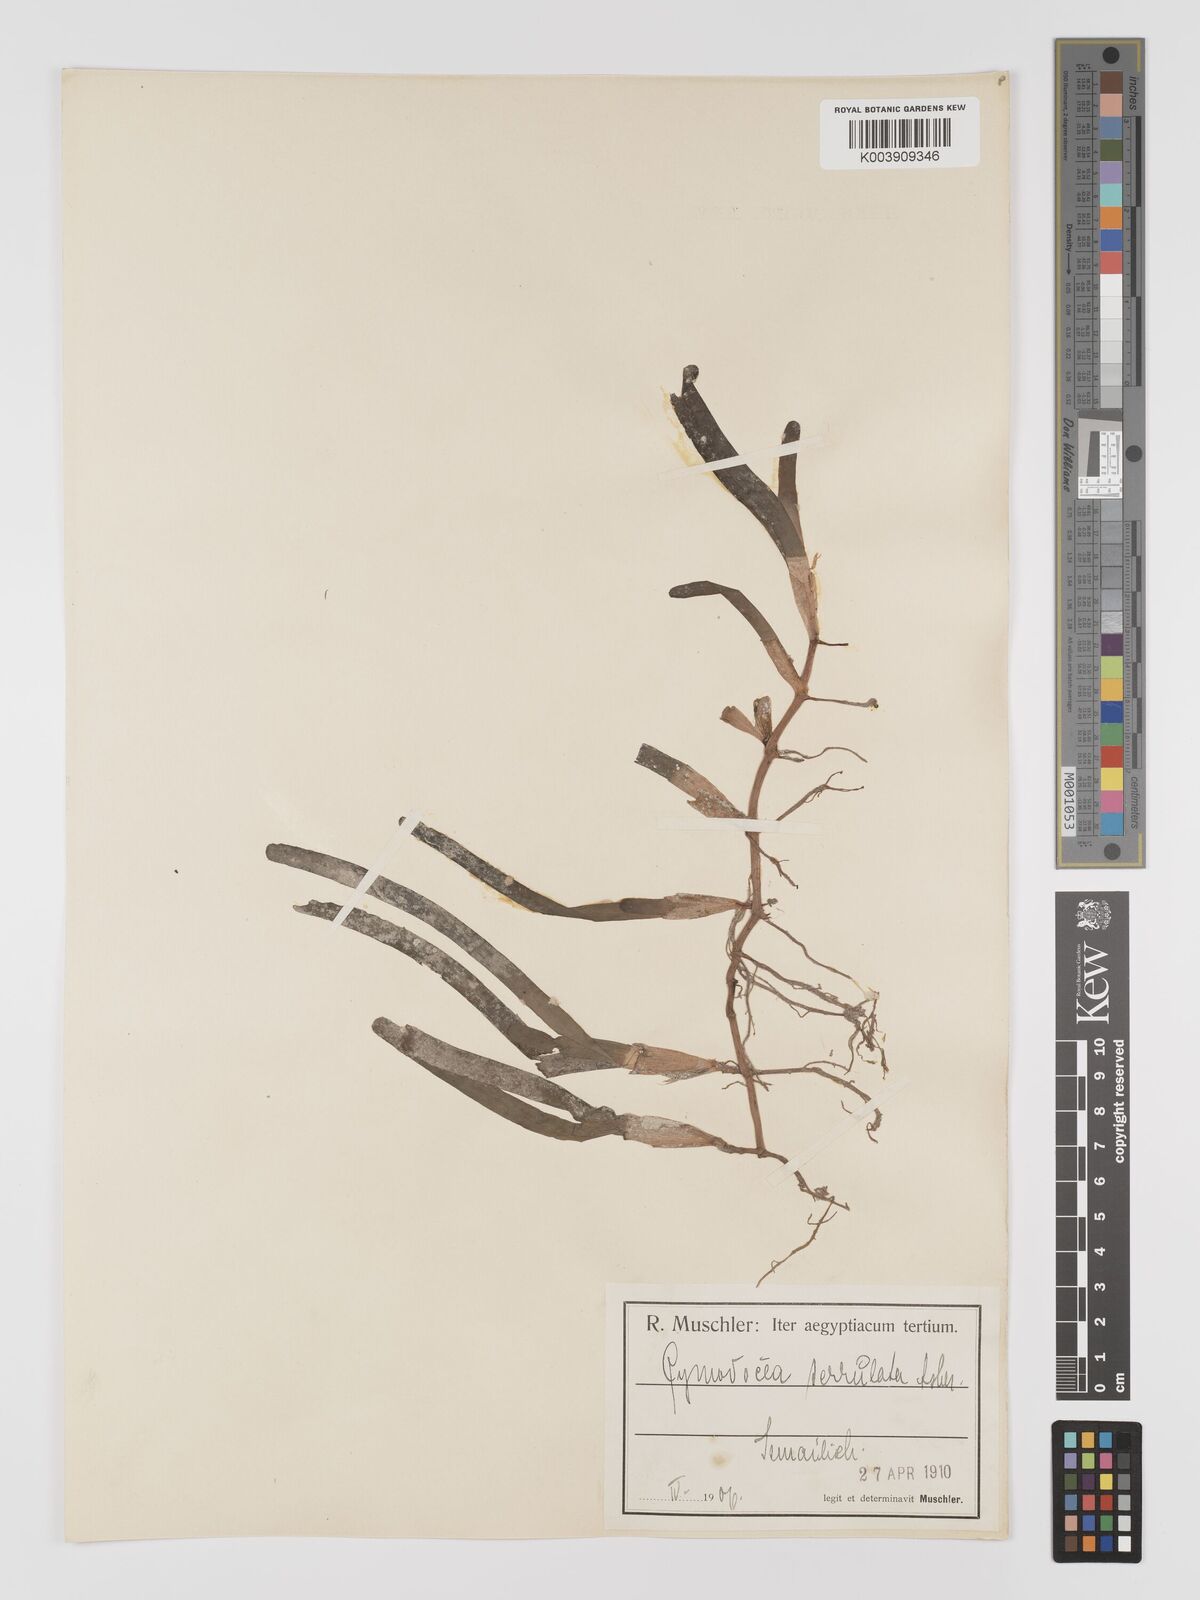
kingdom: Plantae
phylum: Tracheophyta
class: Liliopsida
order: Alismatales
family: Cymodoceaceae
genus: Oceana
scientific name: Oceana serrulata
